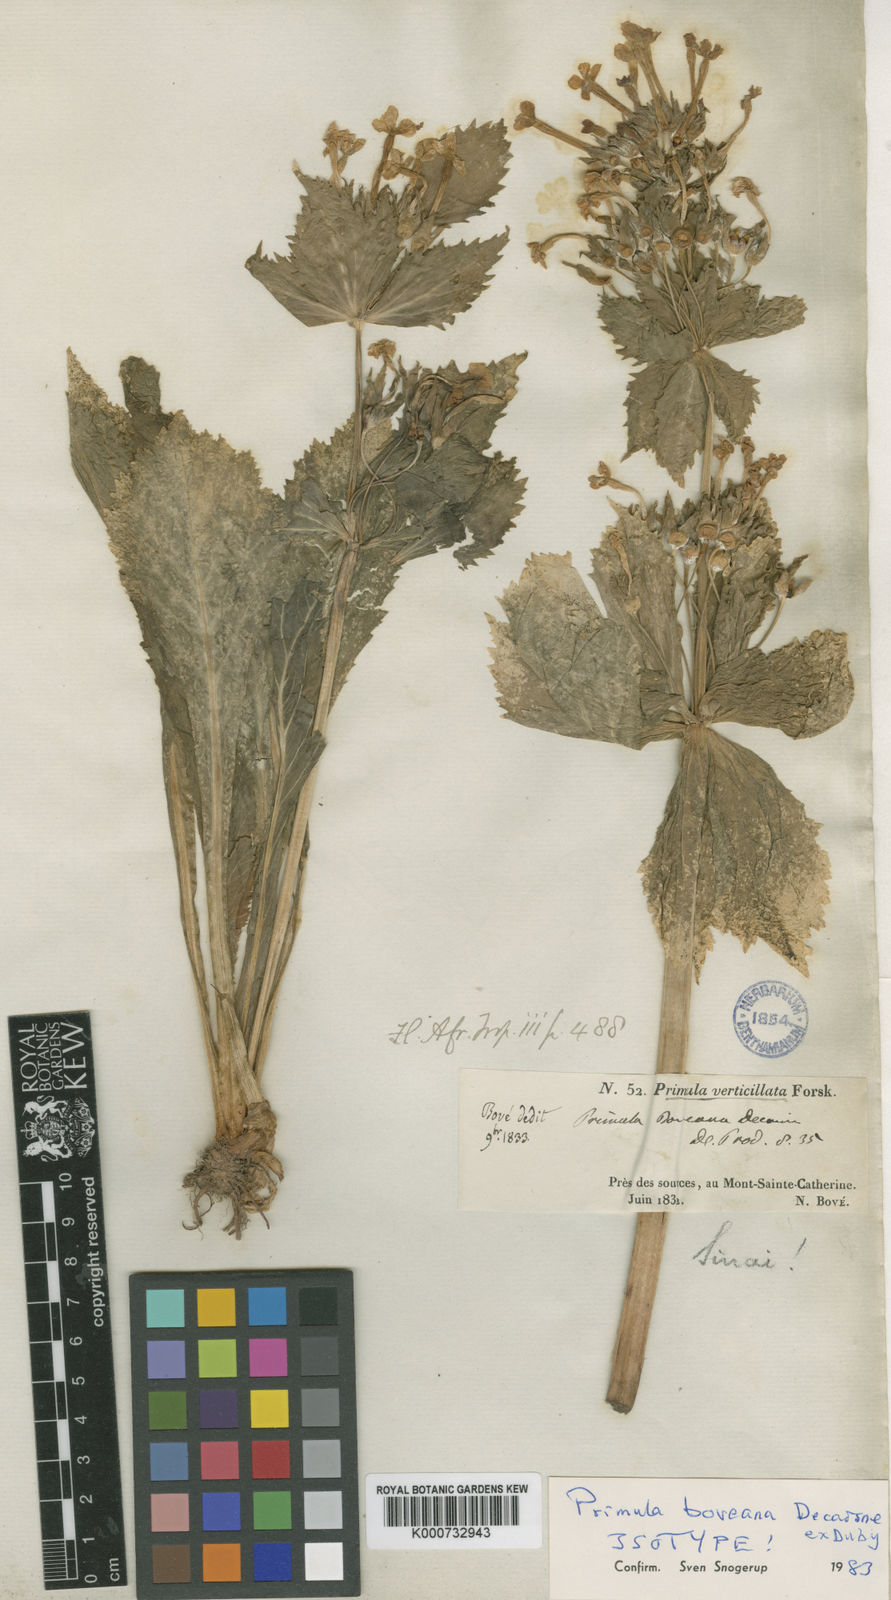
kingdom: Plantae
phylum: Tracheophyta
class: Magnoliopsida
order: Ericales
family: Primulaceae
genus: Evotrochis
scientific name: Evotrochis involucrata
